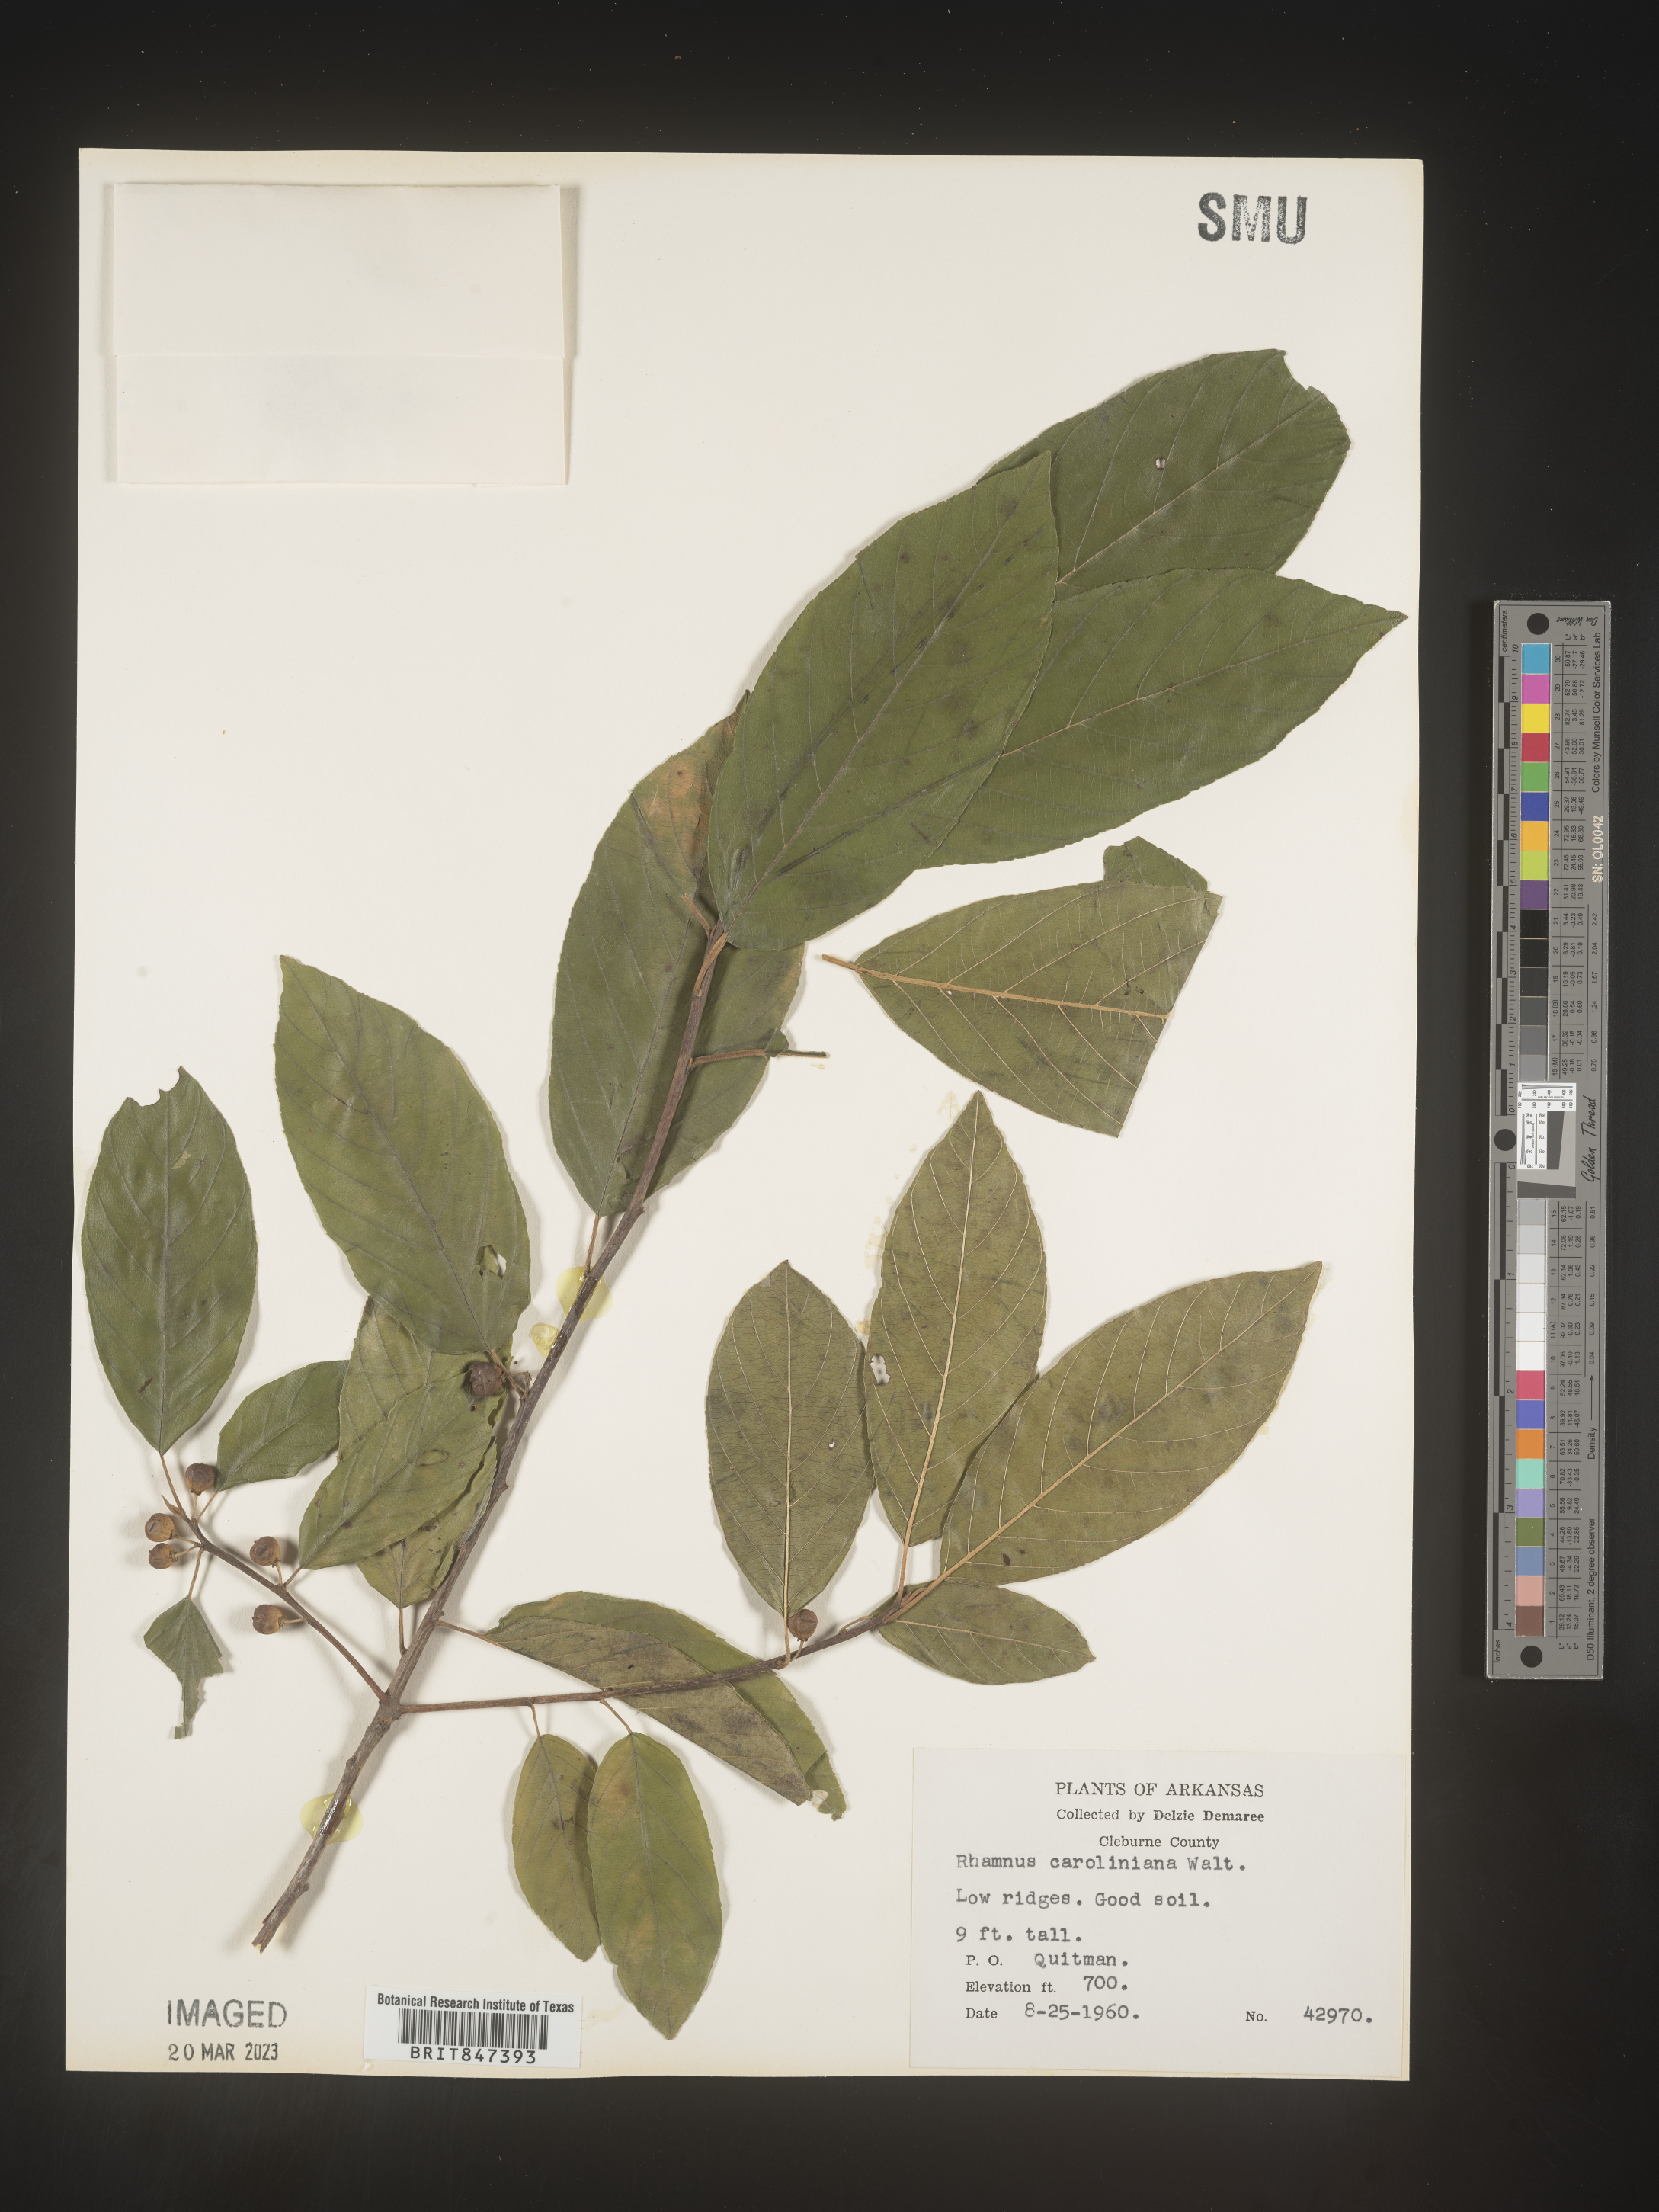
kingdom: Plantae
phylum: Tracheophyta
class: Magnoliopsida
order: Rosales
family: Rhamnaceae
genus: Frangula
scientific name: Frangula caroliniana
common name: Carolina buckthorn
